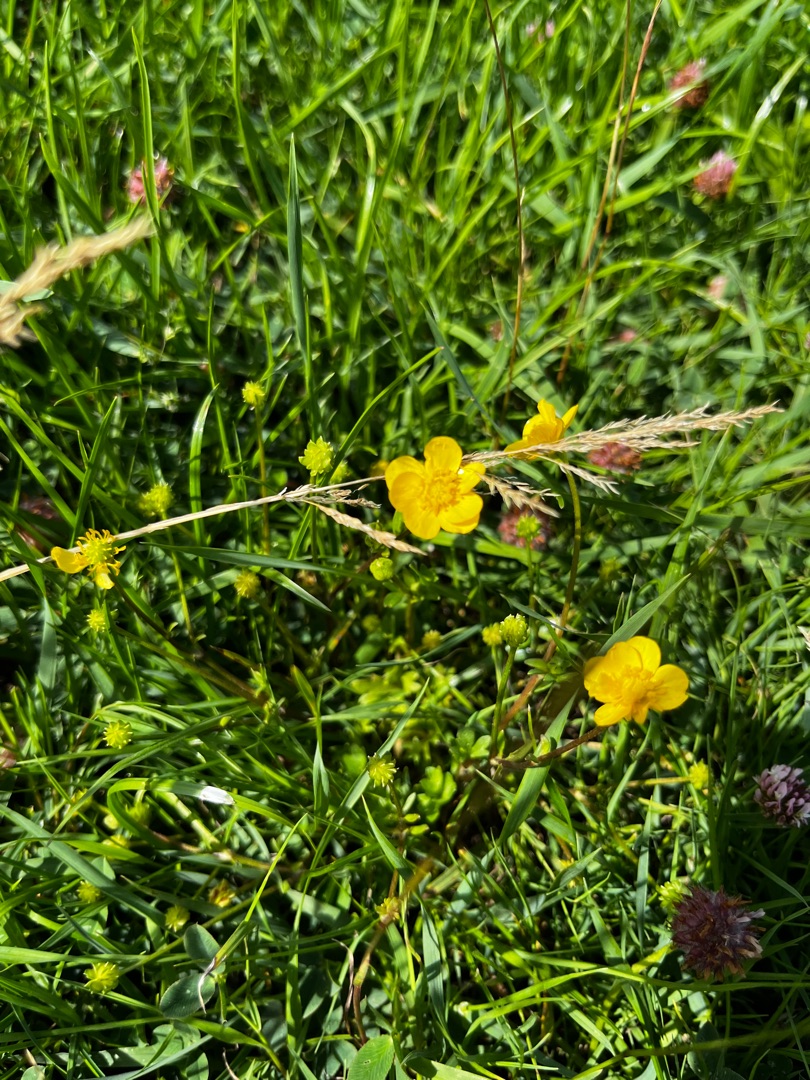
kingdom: Plantae
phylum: Tracheophyta
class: Magnoliopsida
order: Ranunculales
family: Ranunculaceae
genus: Ranunculus
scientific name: Ranunculus sardous
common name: Stivhåret ranunkel
